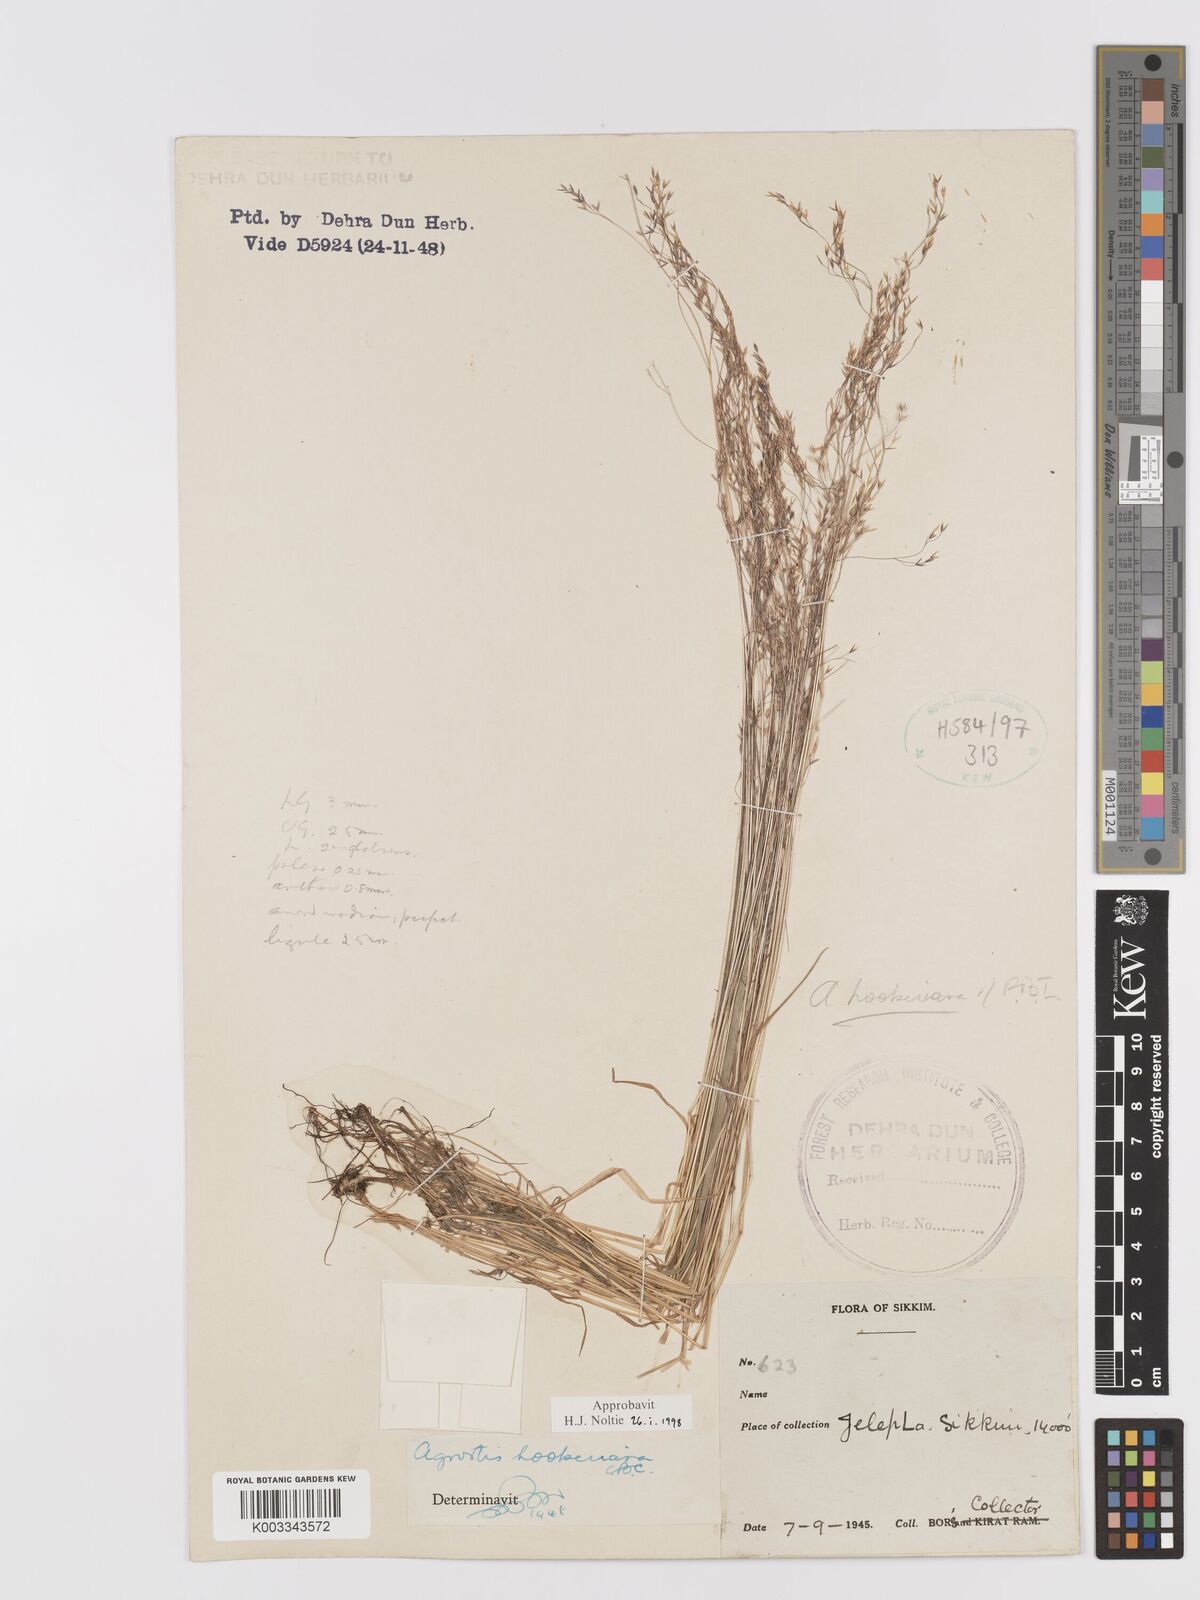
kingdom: Plantae
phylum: Tracheophyta
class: Liliopsida
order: Poales
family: Poaceae
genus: Agrostis
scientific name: Agrostis hookeriana
